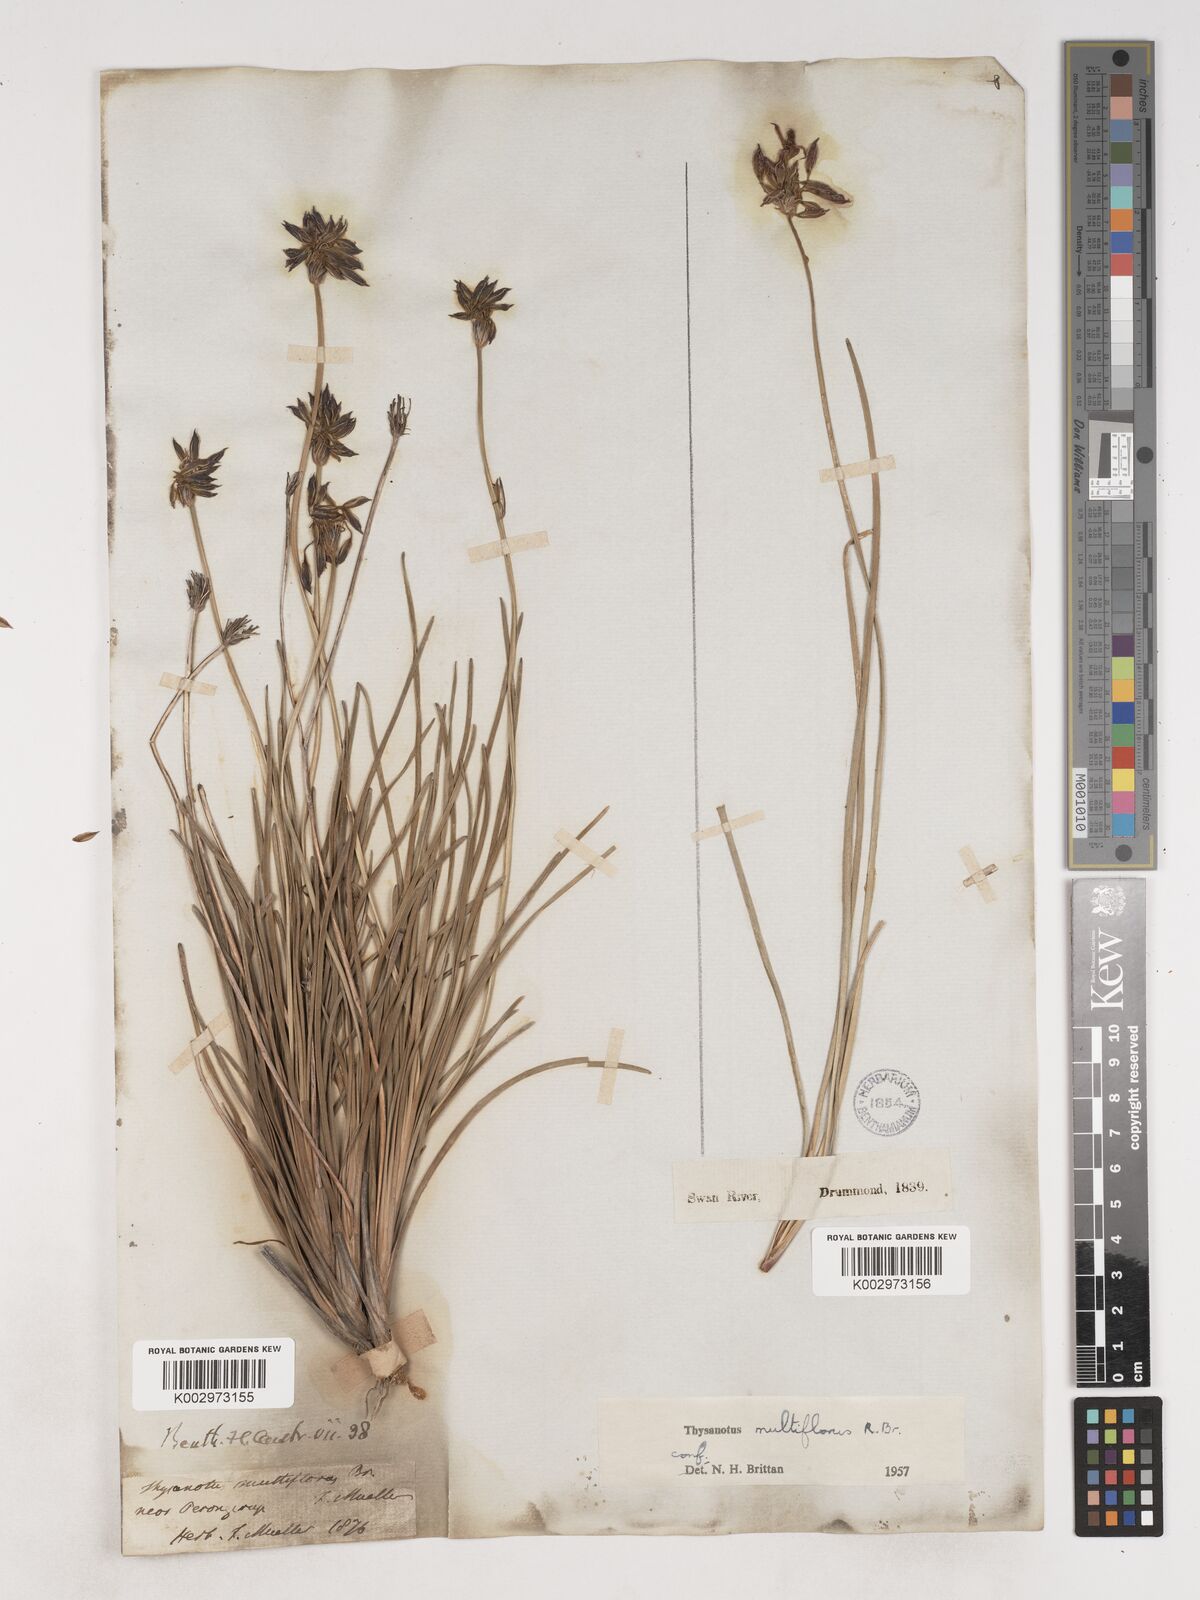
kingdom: Plantae
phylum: Tracheophyta
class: Liliopsida
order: Asparagales
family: Asparagaceae
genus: Thysanotus
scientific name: Thysanotus multiflorus
